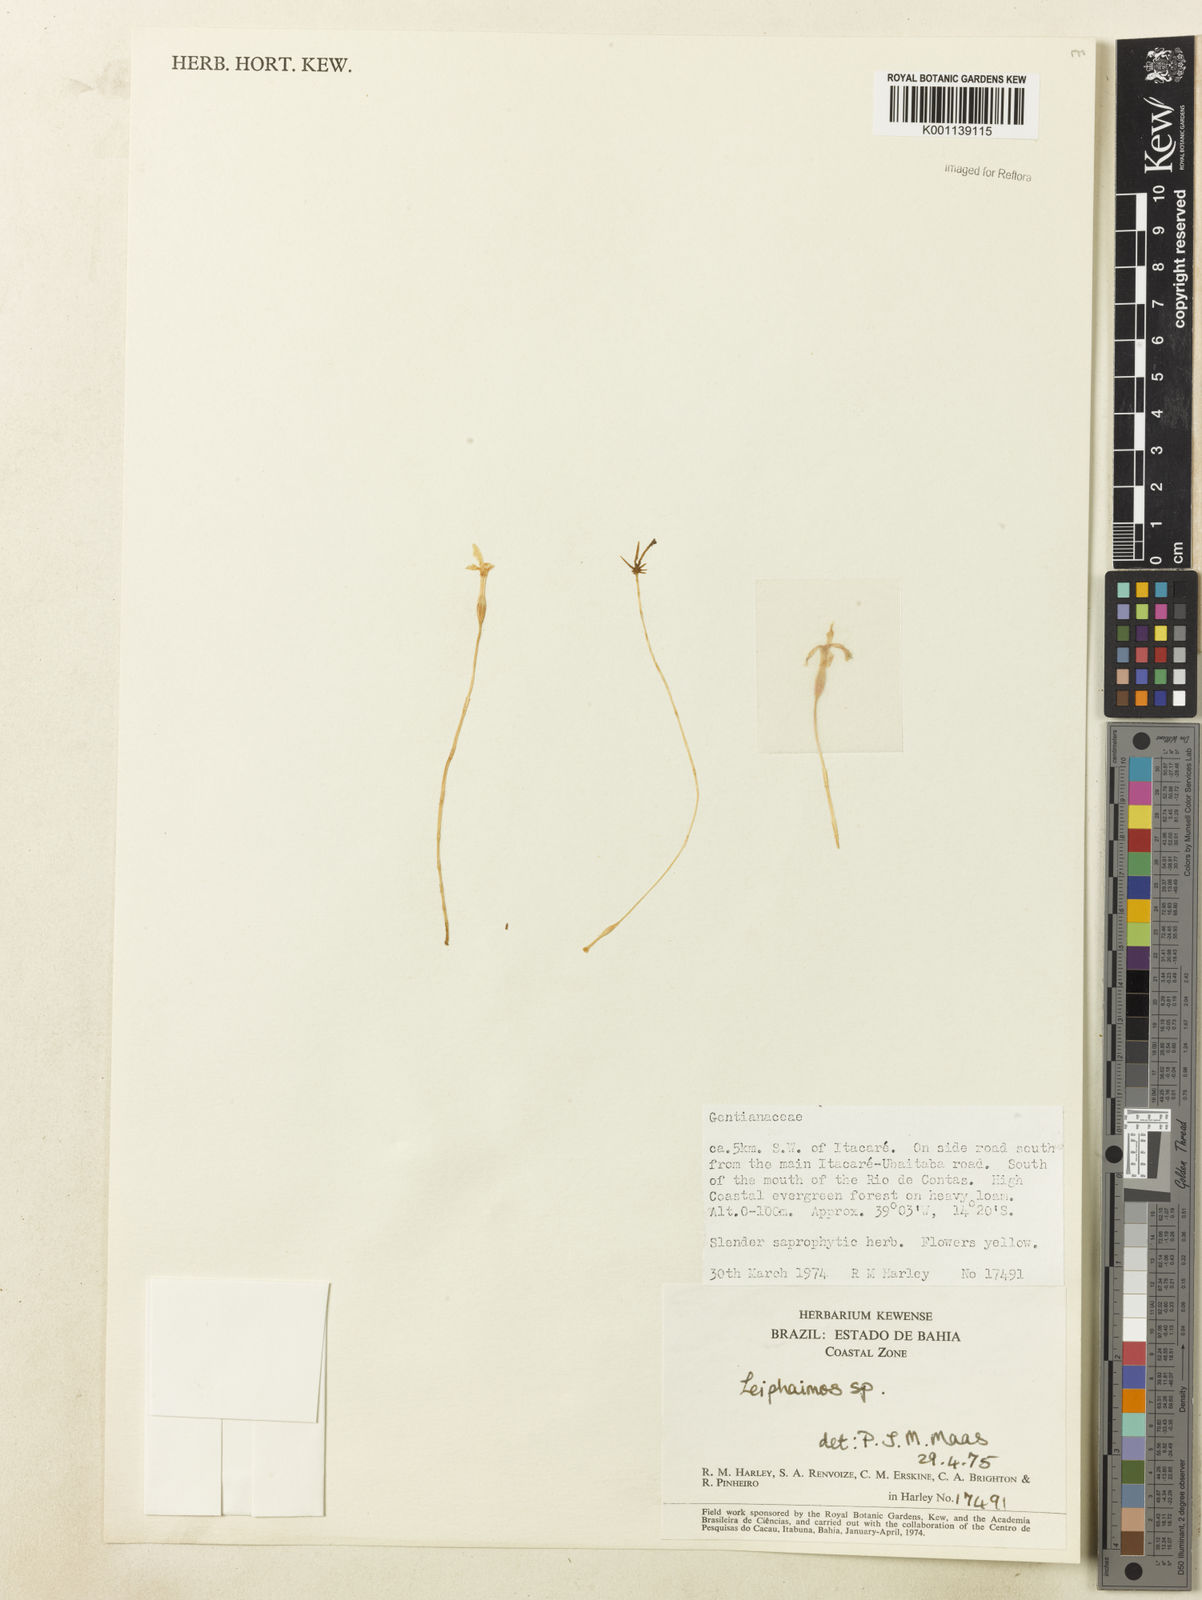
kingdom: Plantae
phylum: Tracheophyta
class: Magnoliopsida
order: Gentianales
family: Gentianaceae
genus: Voyria
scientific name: Voyria
